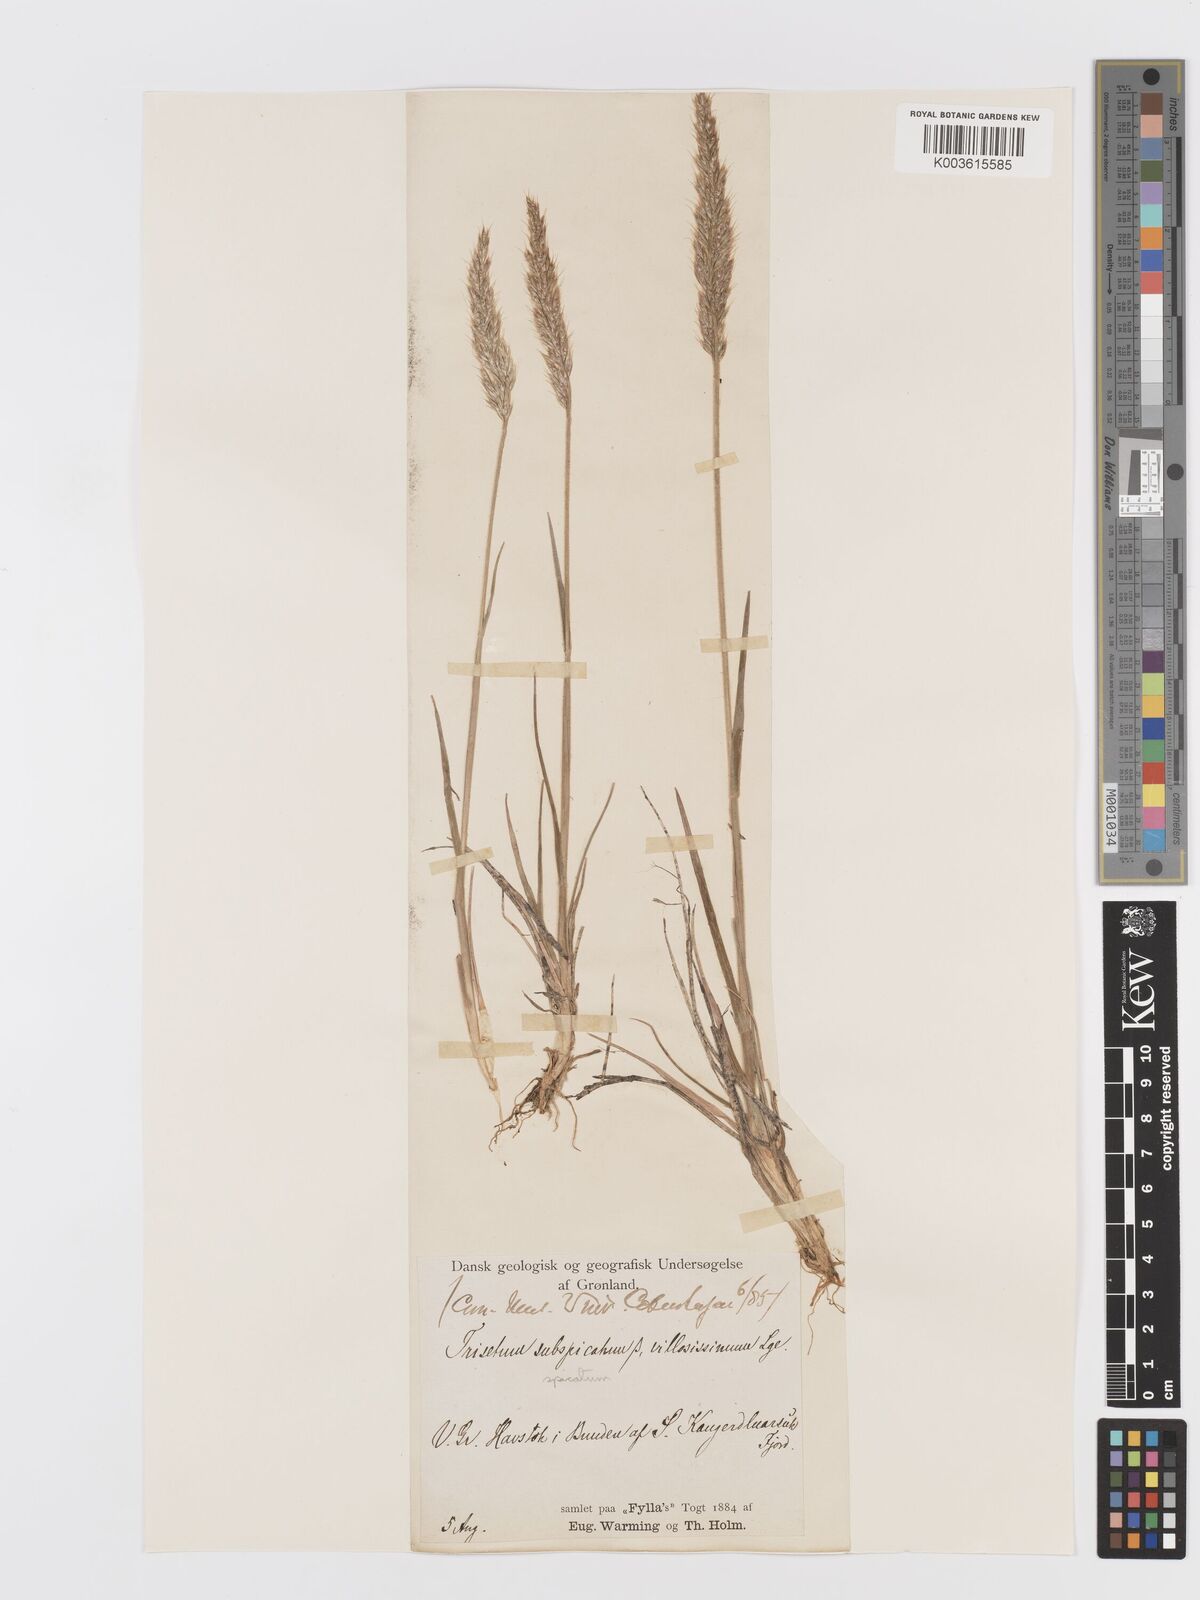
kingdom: Plantae
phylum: Tracheophyta
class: Liliopsida
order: Poales
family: Poaceae
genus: Koeleria
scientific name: Koeleria spicata
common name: Mountain trisetum
